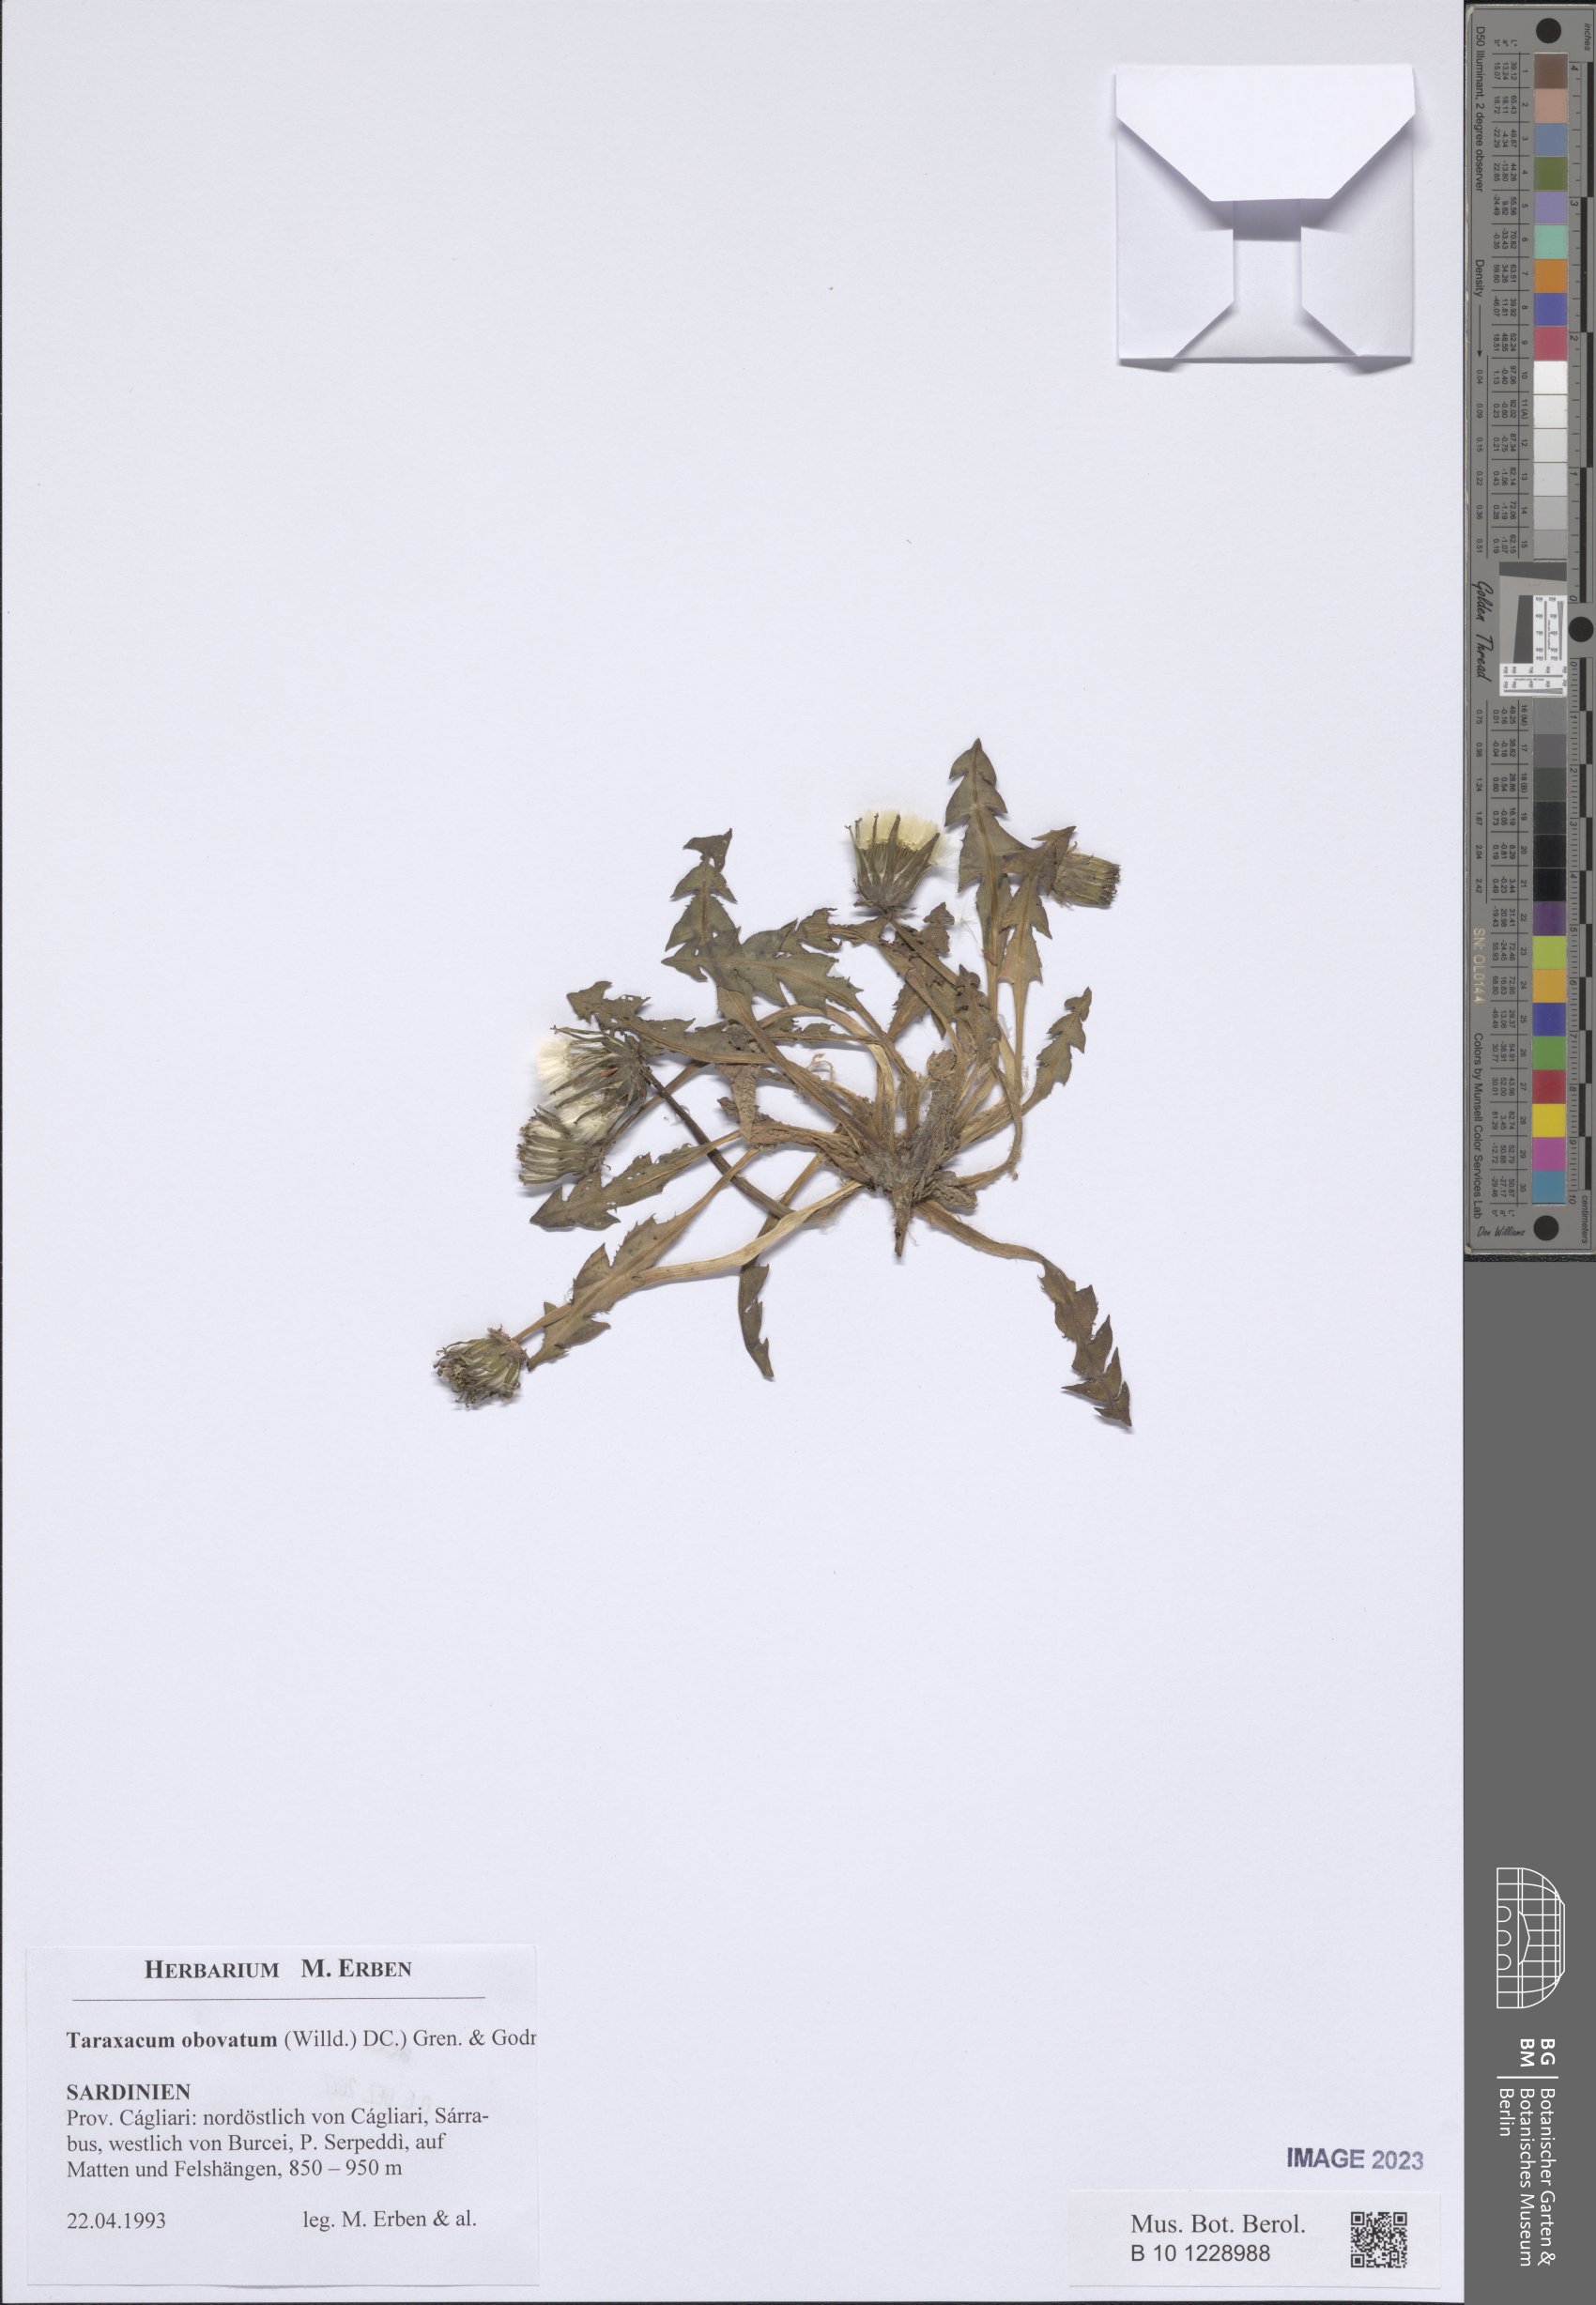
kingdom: Plantae
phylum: Tracheophyta
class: Magnoliopsida
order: Asterales
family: Asteraceae
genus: Taraxacum
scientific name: Taraxacum obovatum
